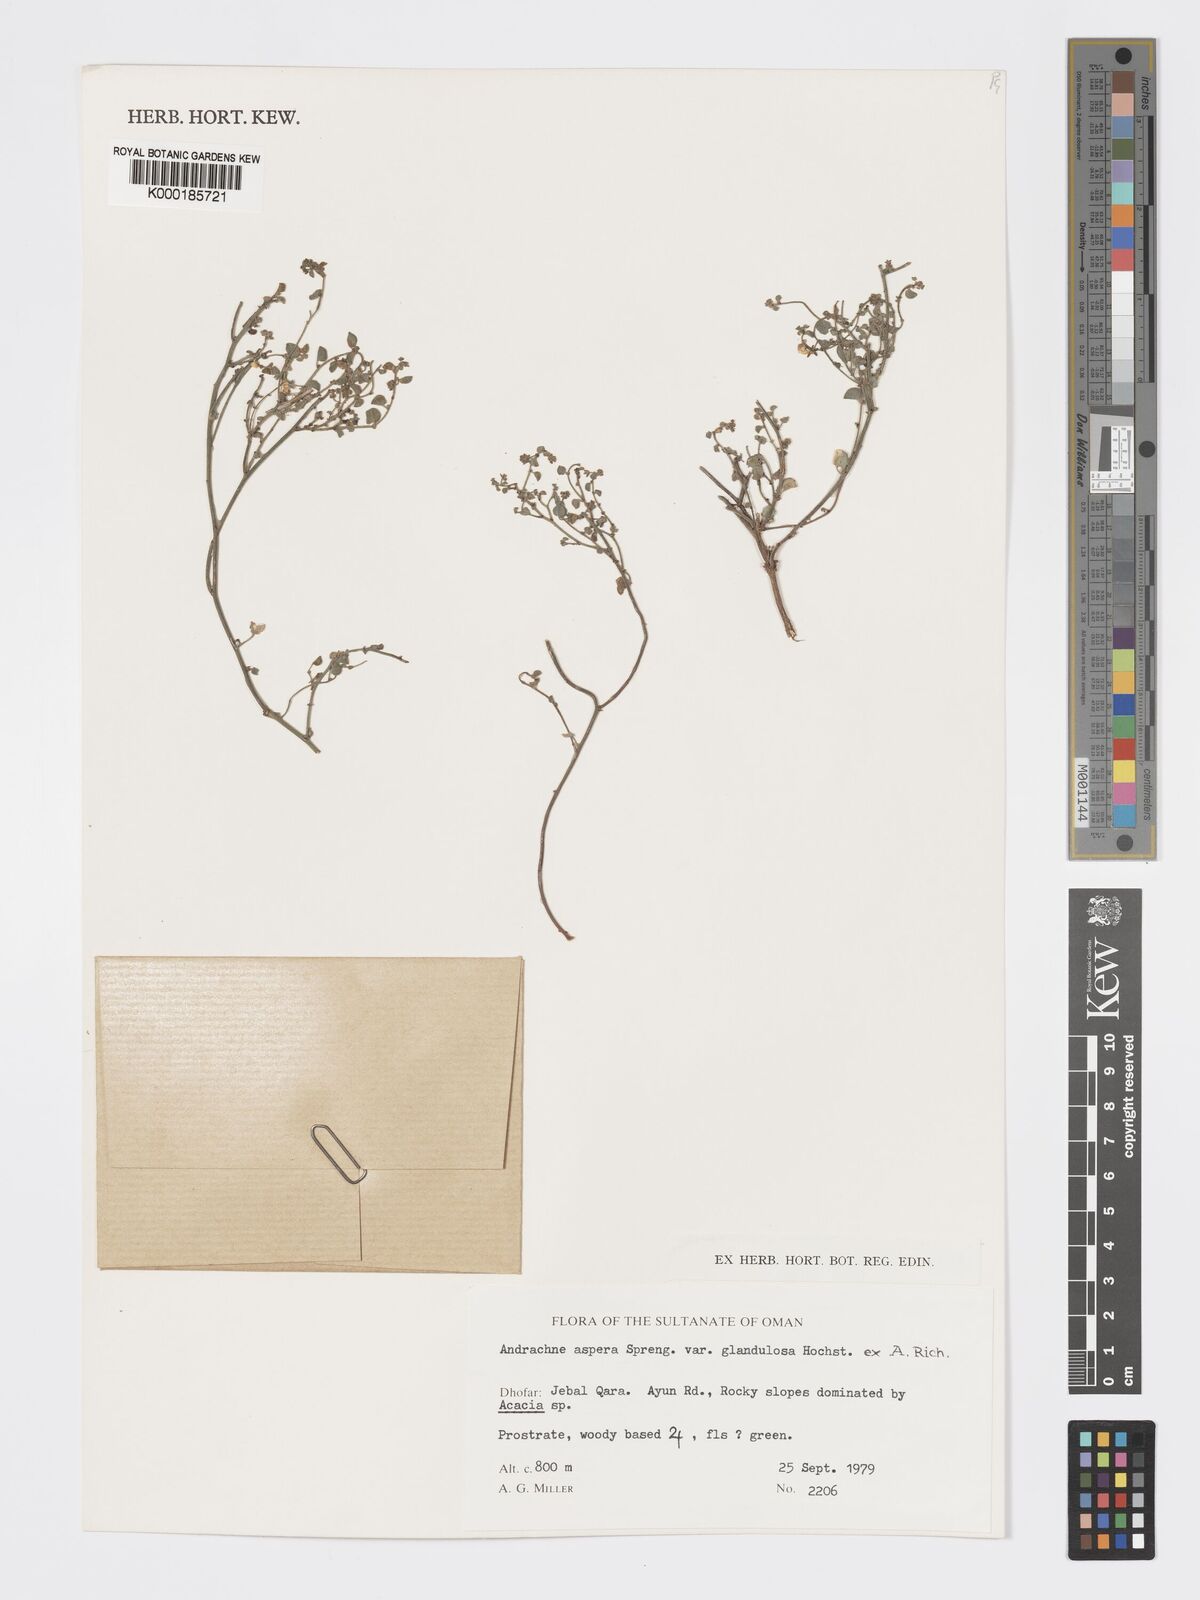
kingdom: Plantae
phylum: Tracheophyta
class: Magnoliopsida
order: Malpighiales
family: Phyllanthaceae
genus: Andrachne
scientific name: Andrachne aspera
